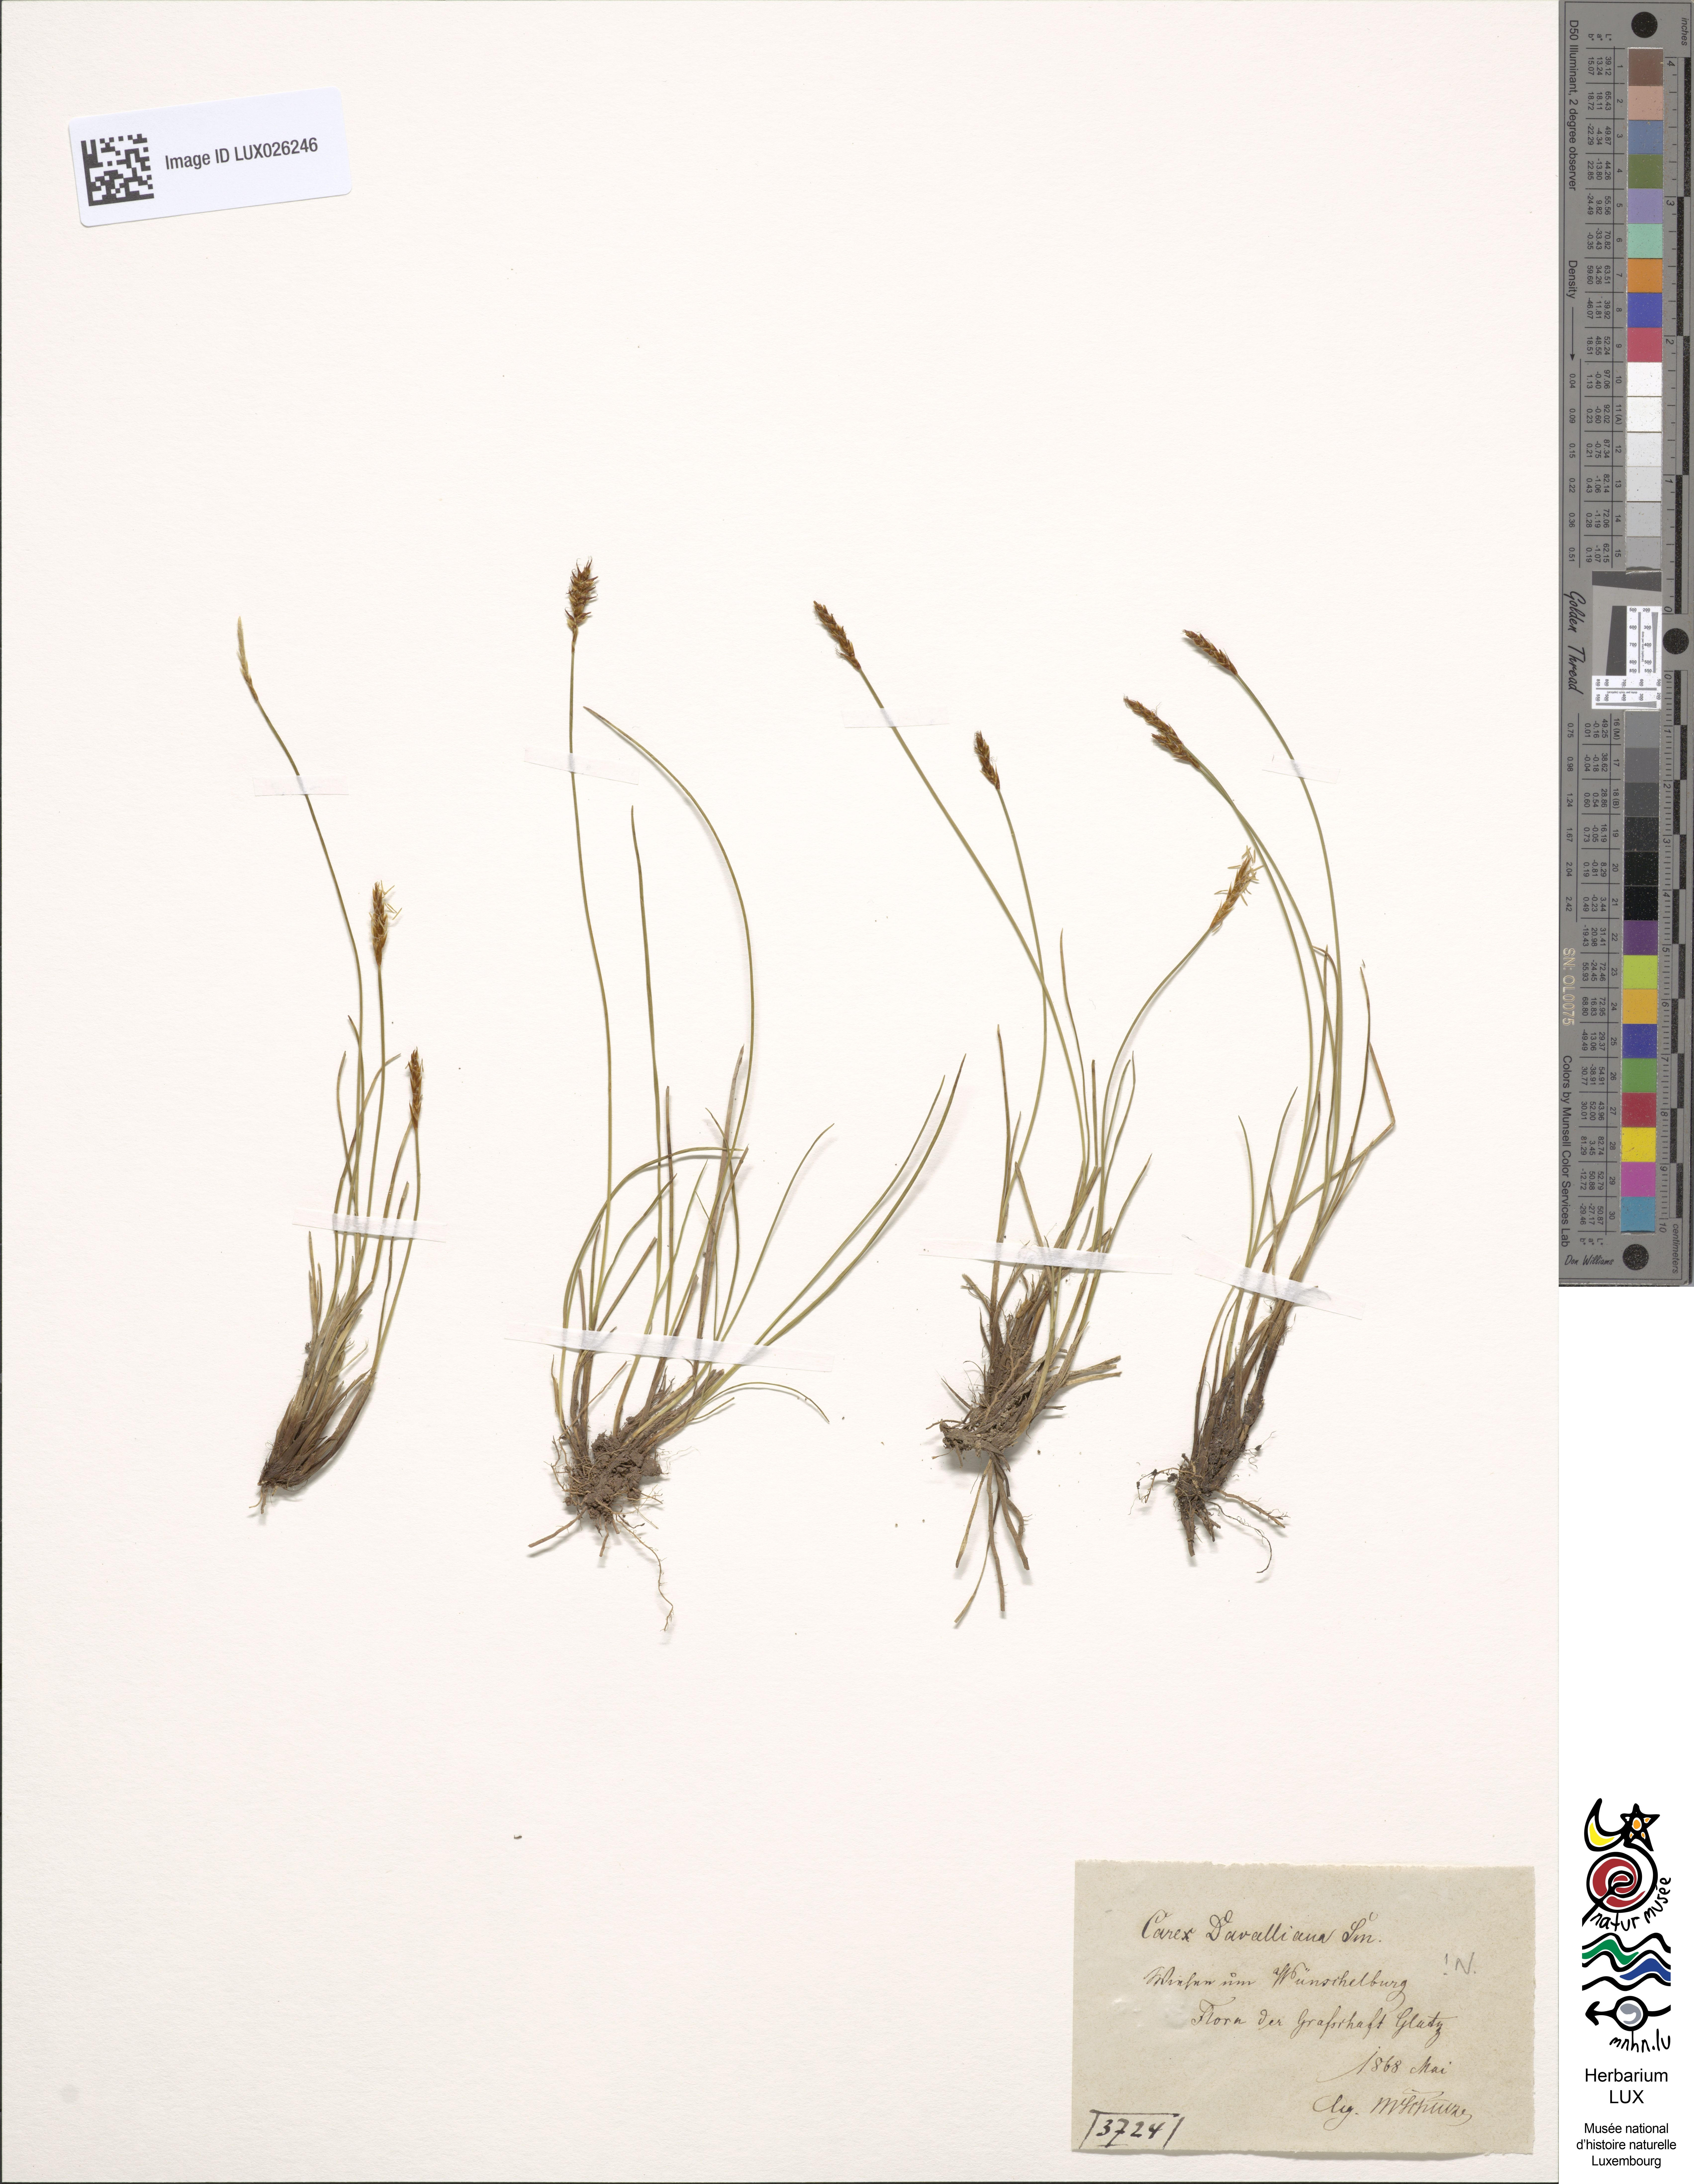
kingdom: Plantae
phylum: Tracheophyta
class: Liliopsida
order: Poales
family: Cyperaceae
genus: Carex
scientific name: Carex davalliana
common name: Davall's sedge
